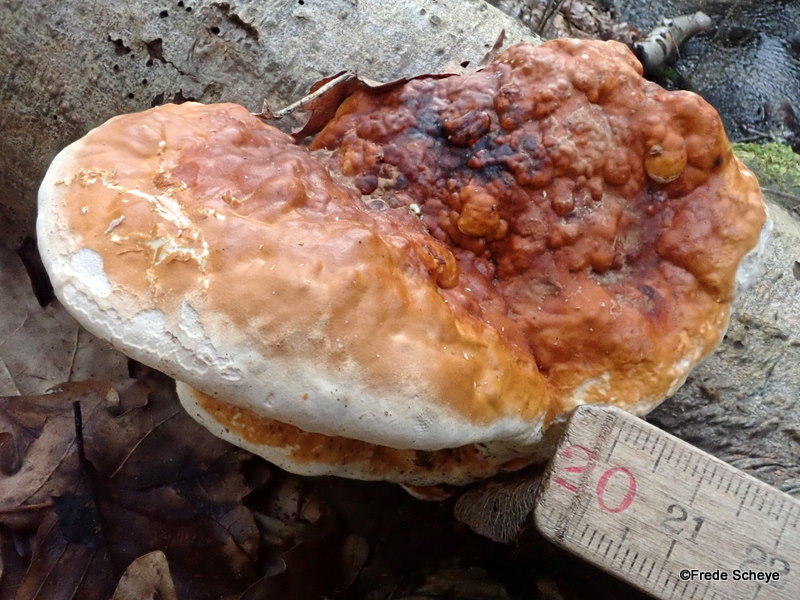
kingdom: Fungi
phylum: Basidiomycota
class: Agaricomycetes
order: Polyporales
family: Fomitopsidaceae
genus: Fomitopsis
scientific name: Fomitopsis pinicola
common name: randbæltet hovporesvamp
